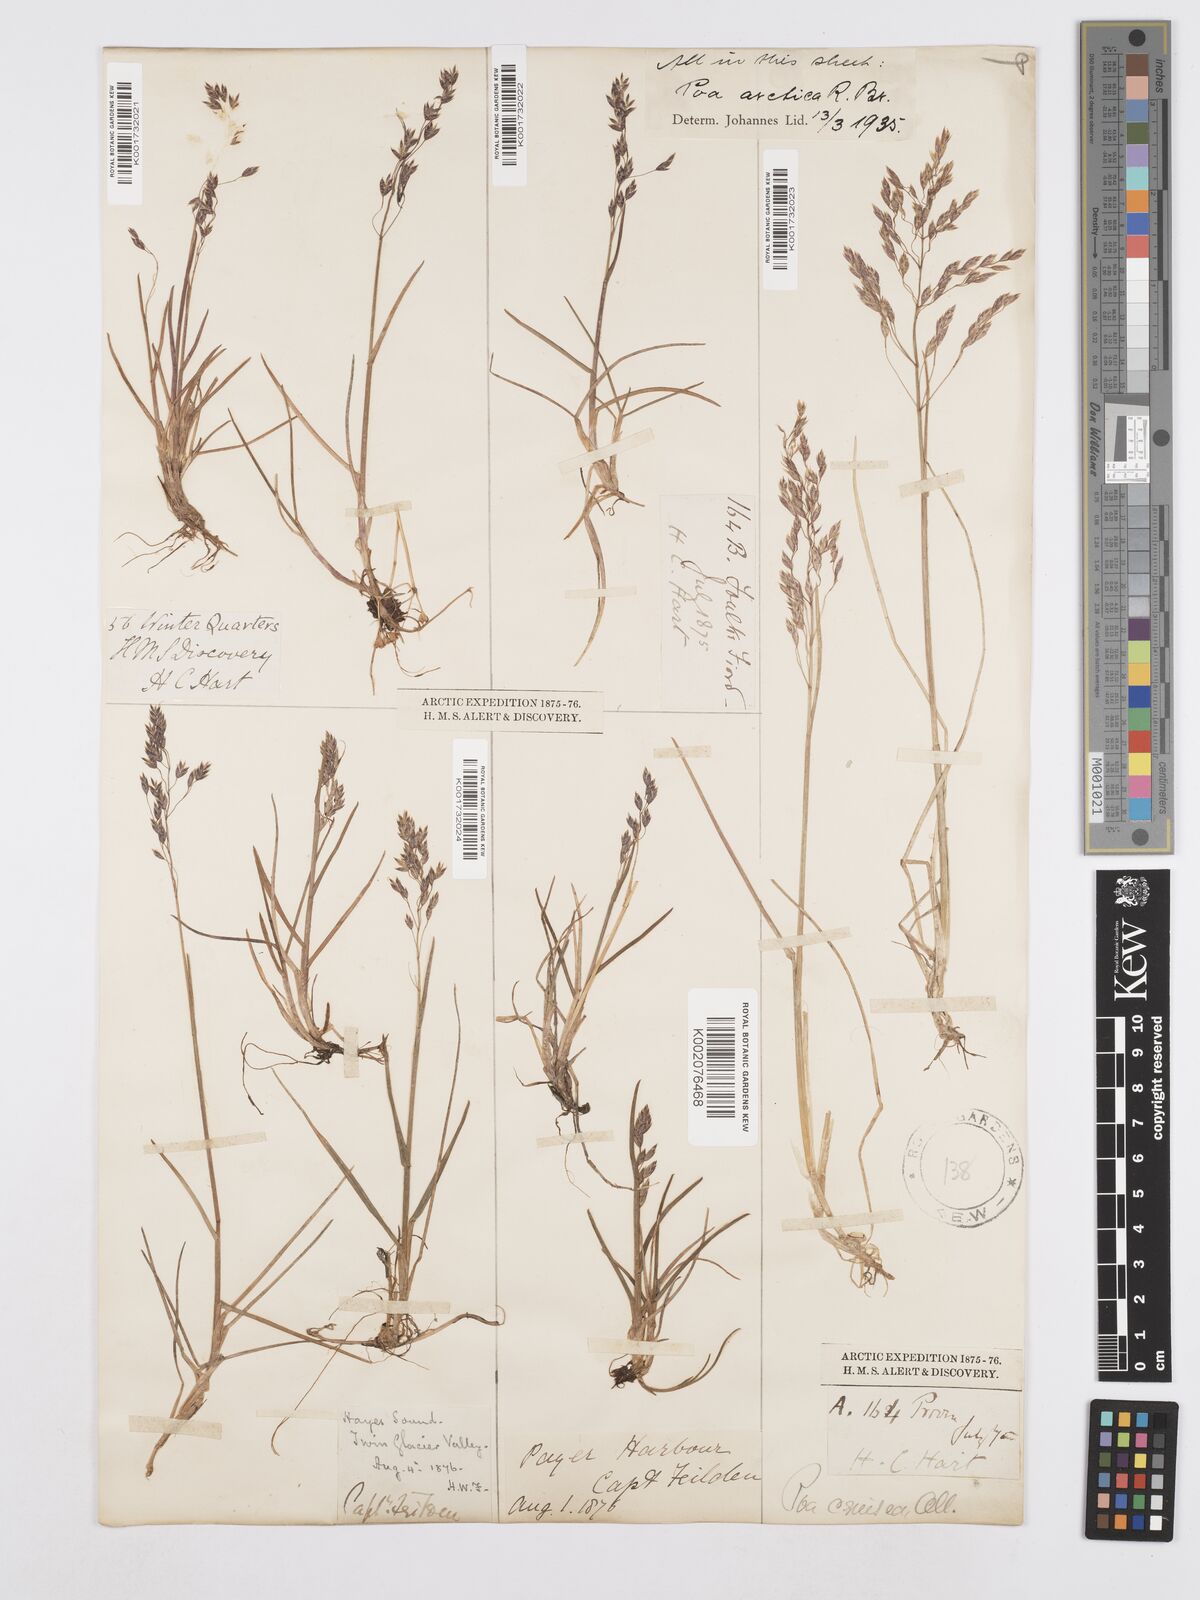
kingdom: Plantae
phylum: Tracheophyta
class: Liliopsida
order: Poales
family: Poaceae
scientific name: Poaceae
